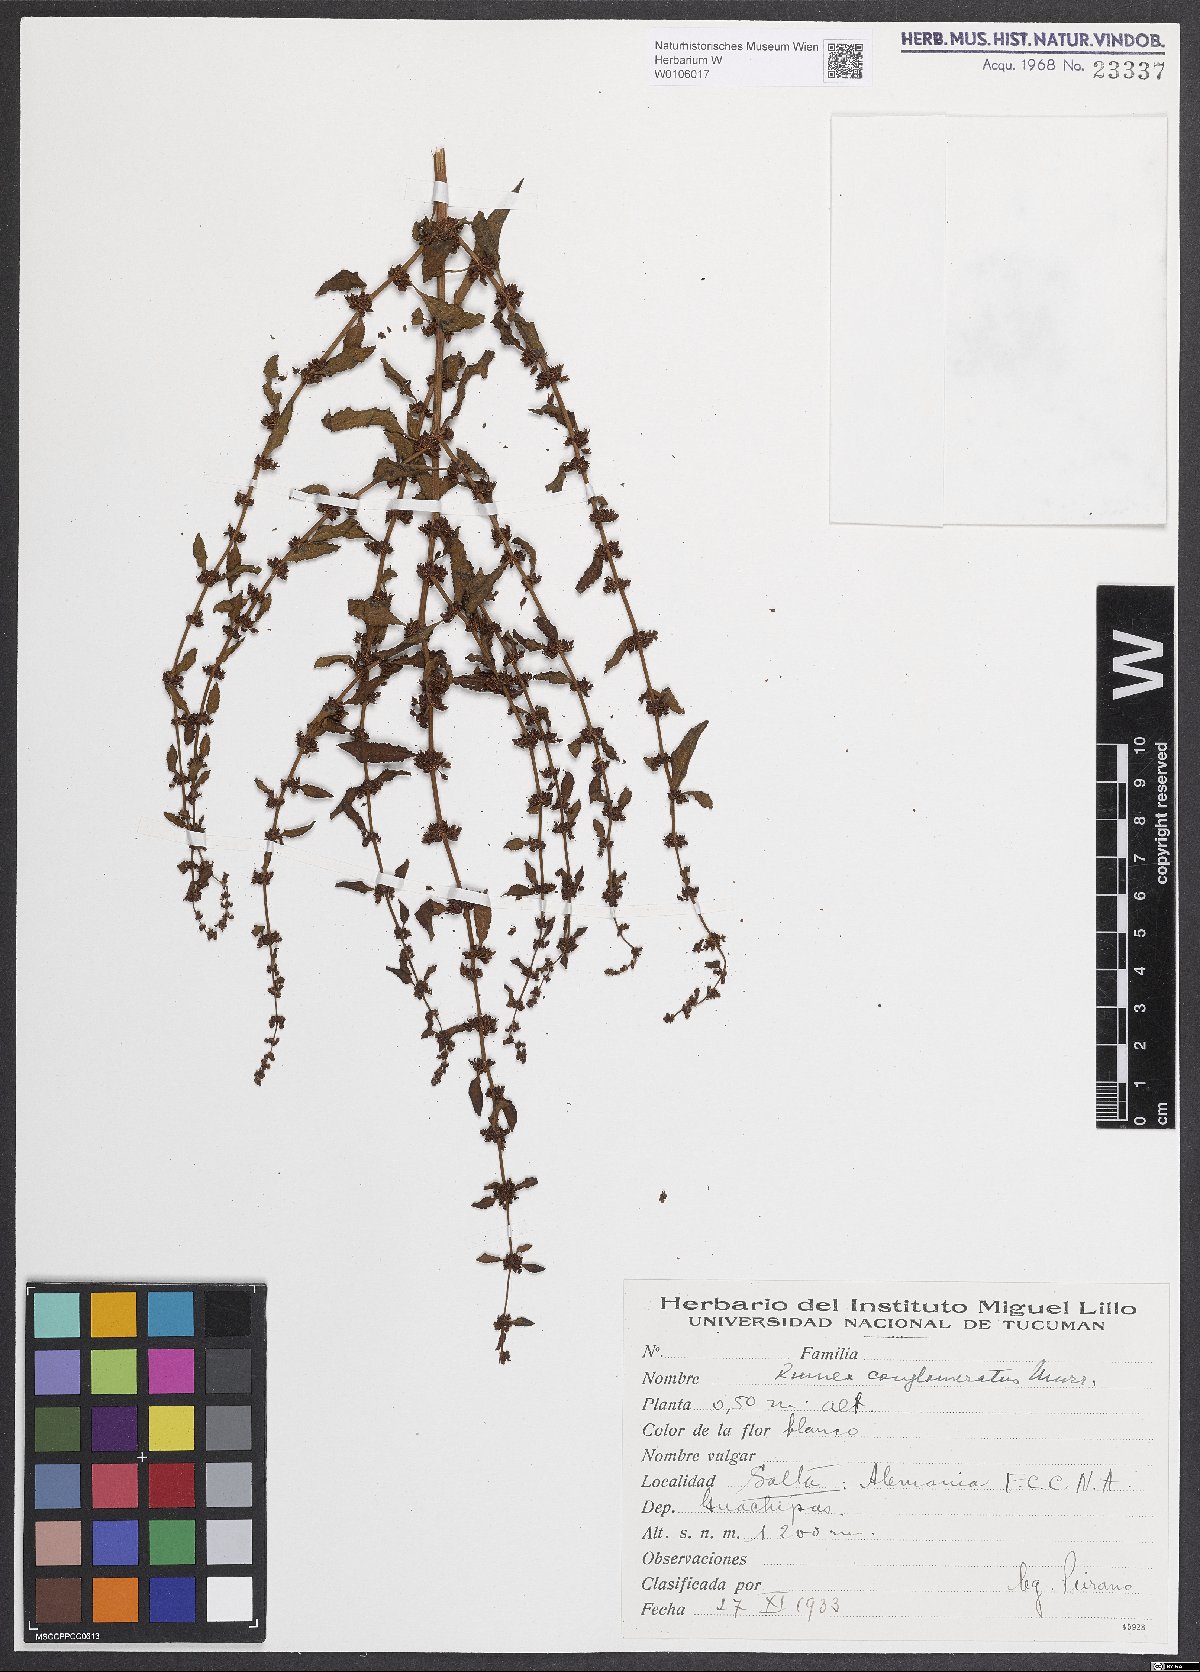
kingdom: Plantae
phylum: Tracheophyta
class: Magnoliopsida
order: Caryophyllales
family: Polygonaceae
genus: Rumex
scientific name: Rumex conglomeratus
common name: Clustered dock
